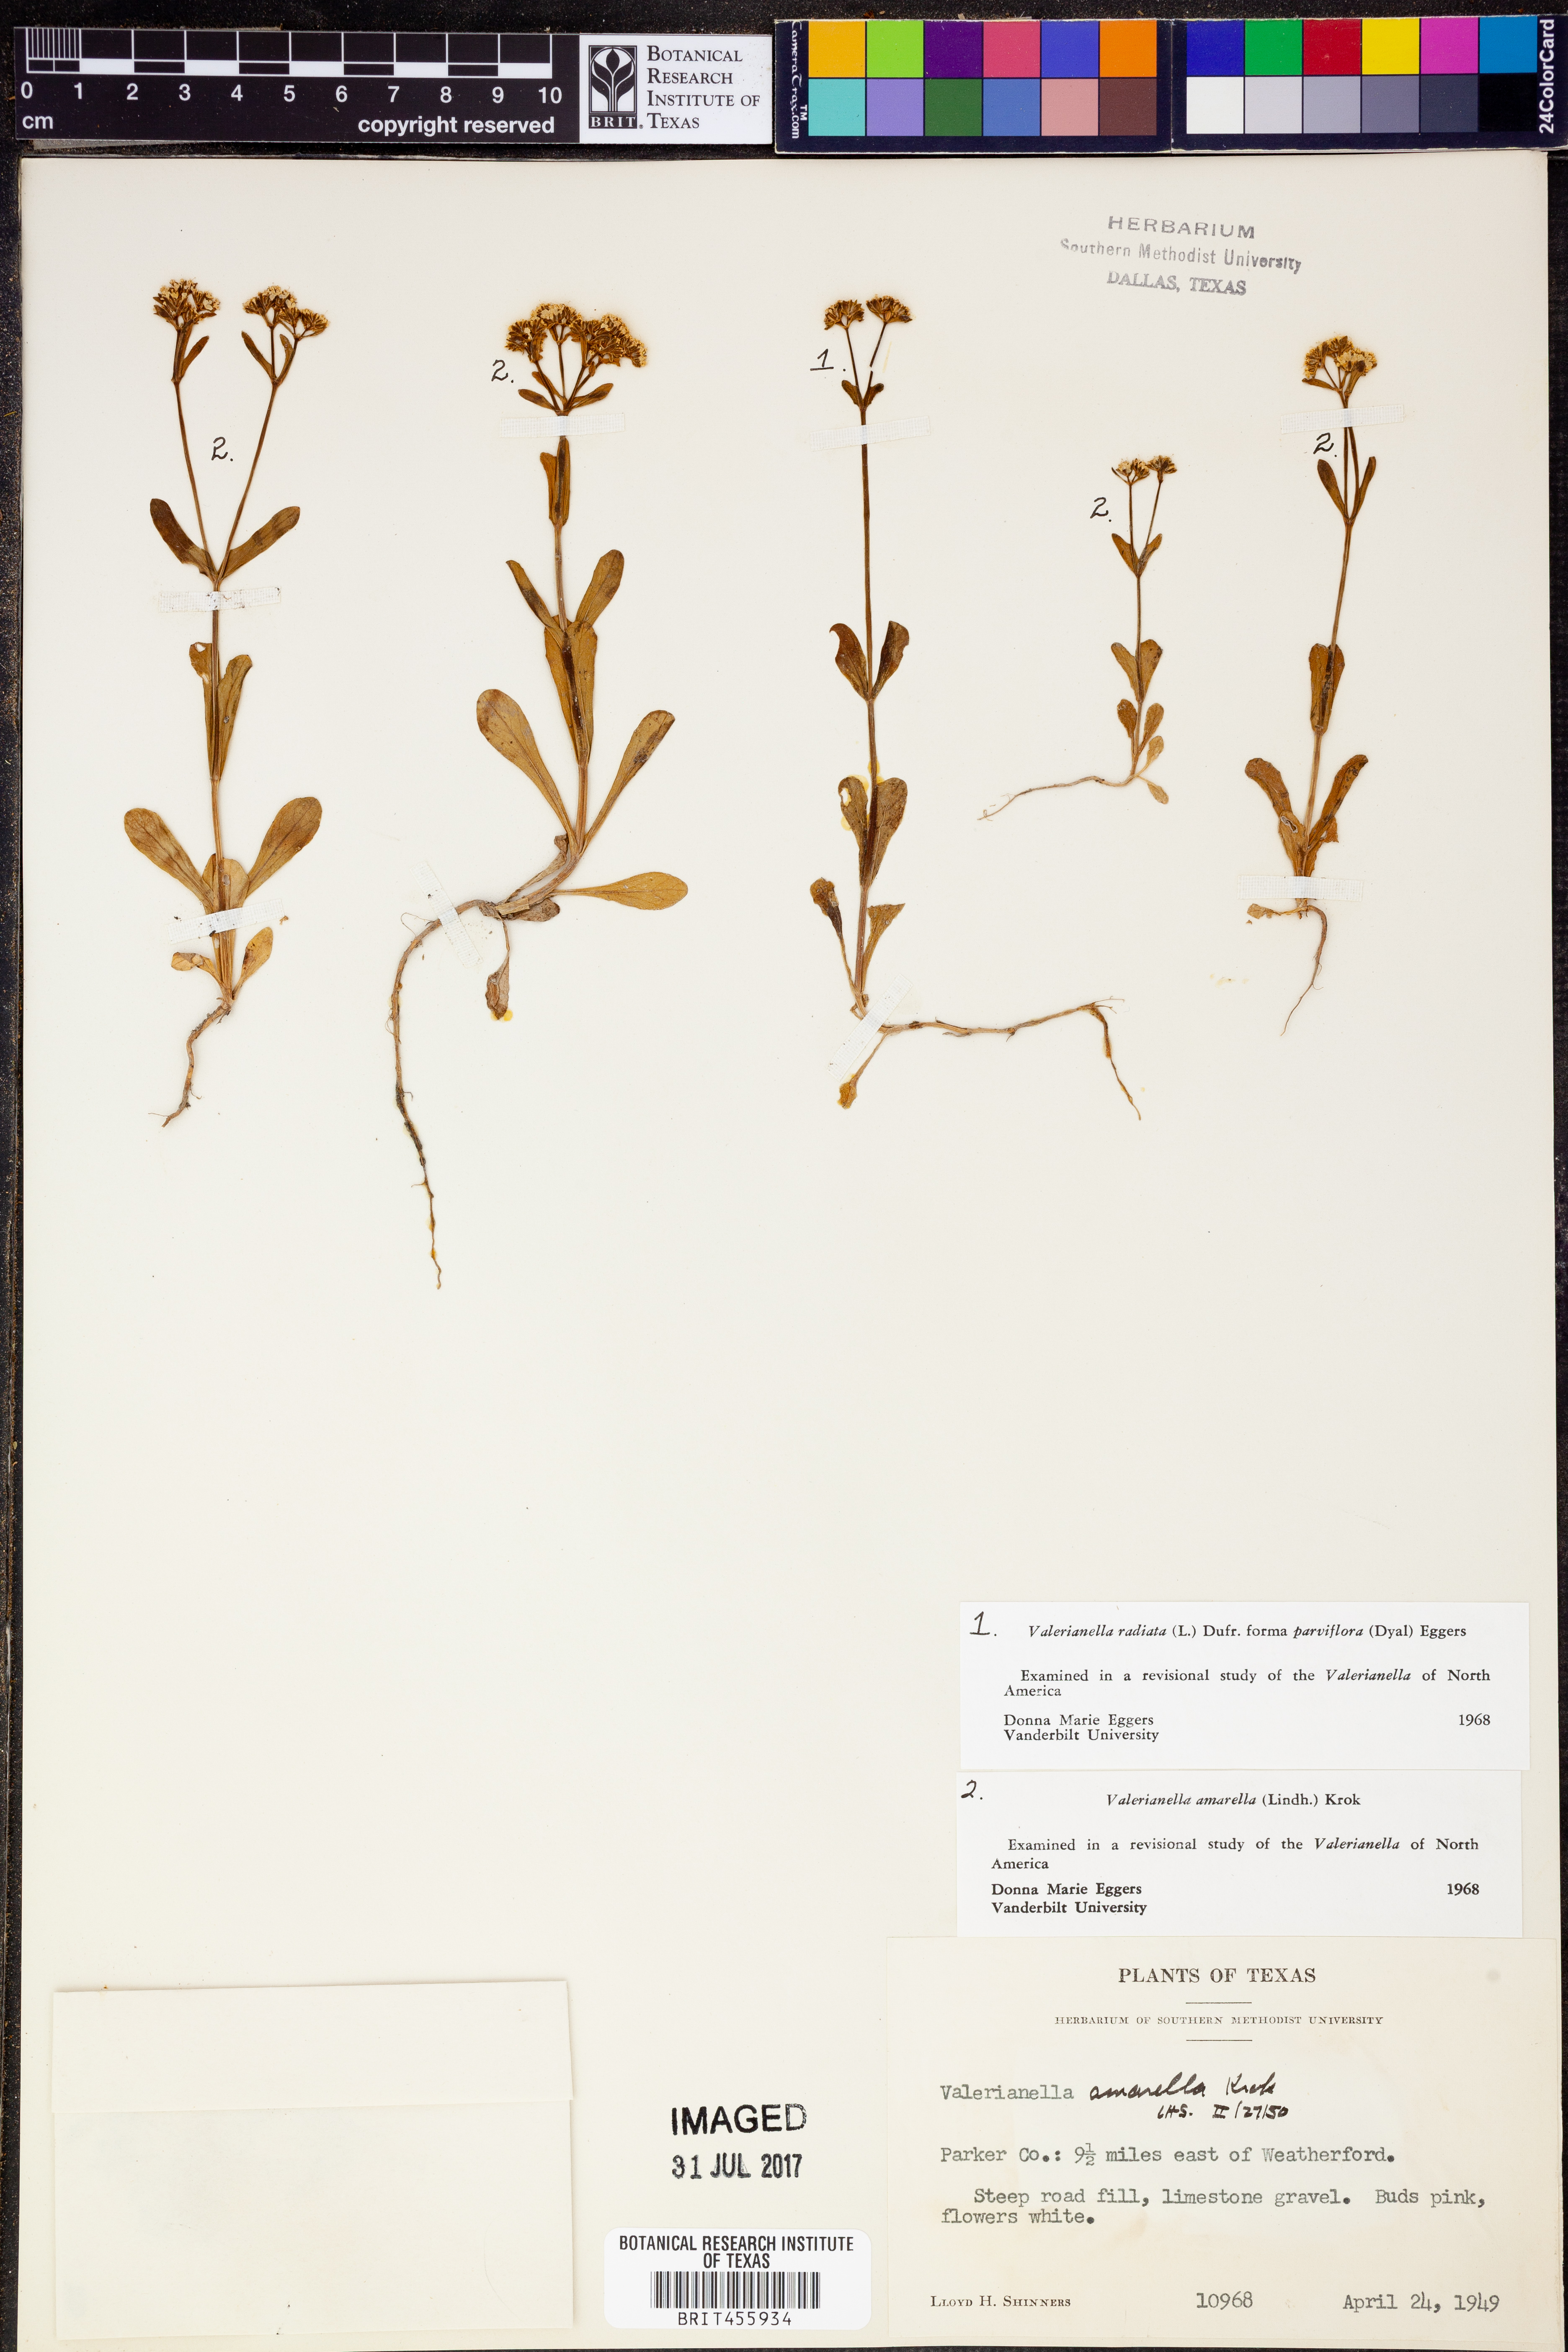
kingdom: Plantae
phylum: Tracheophyta
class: Magnoliopsida
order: Dipsacales
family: Caprifoliaceae
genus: Valerianella
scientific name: Valerianella amarella
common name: Hariy cornsalad
